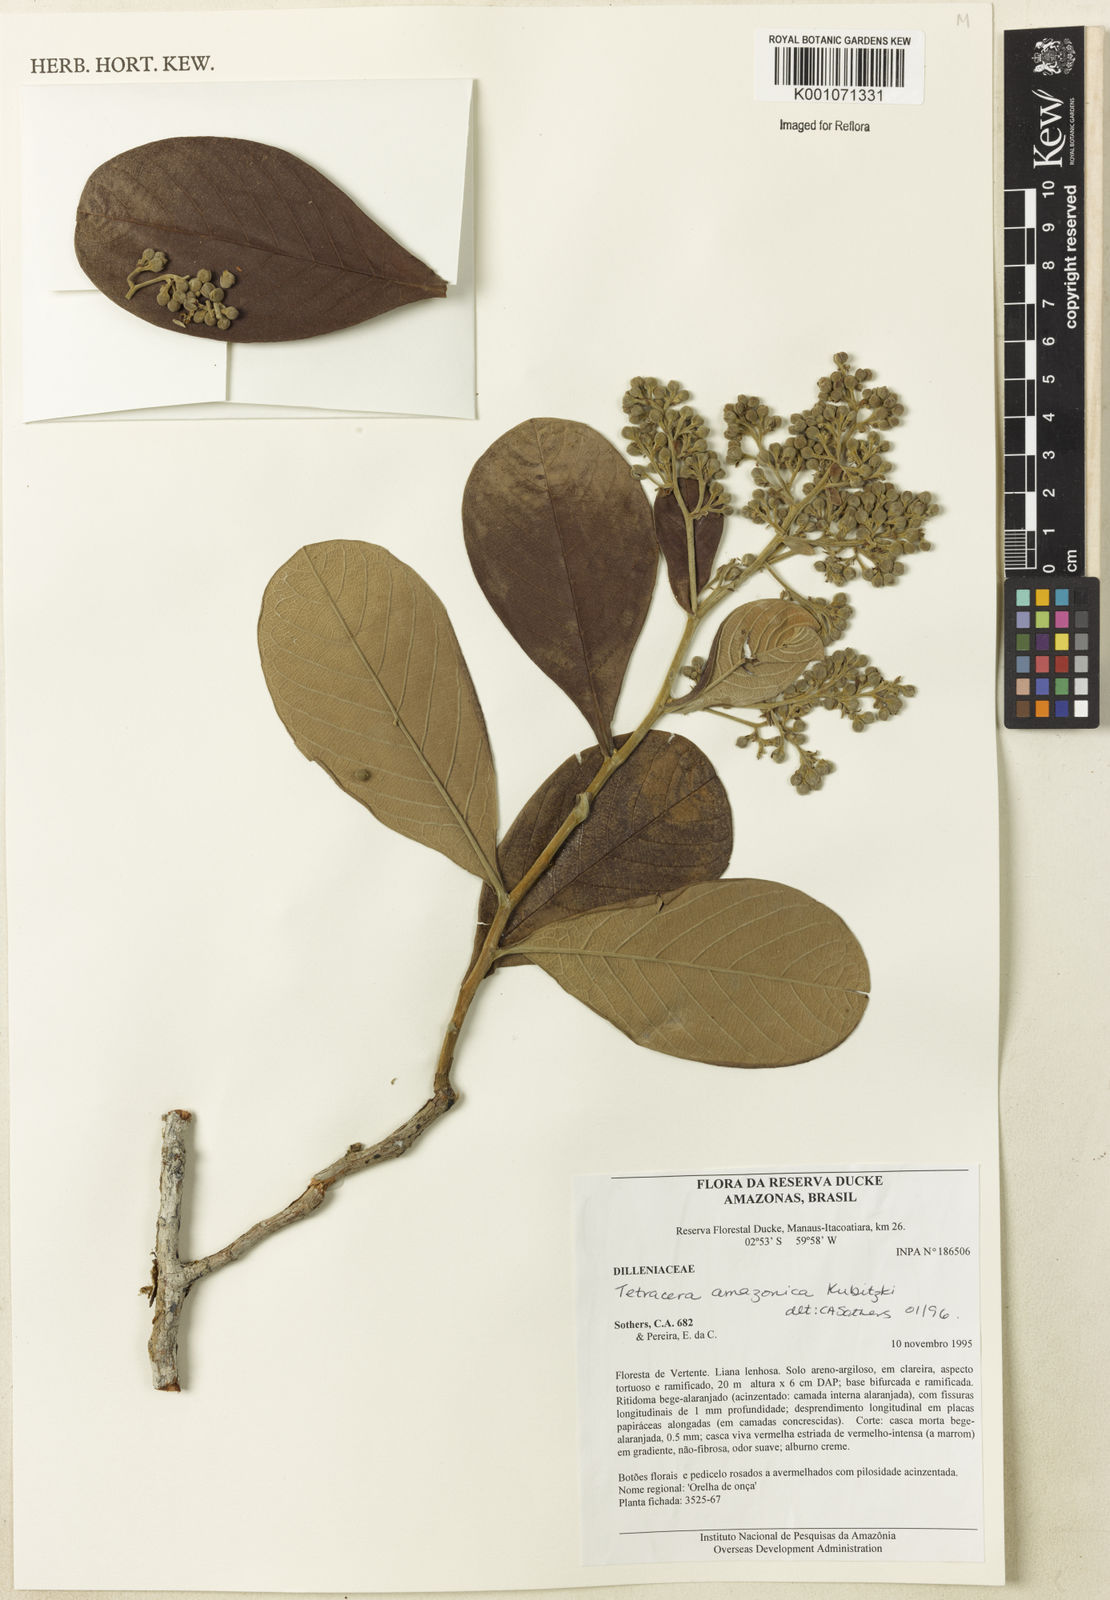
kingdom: Plantae
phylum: Tracheophyta
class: Magnoliopsida
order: Dilleniales
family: Dilleniaceae
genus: Tetracera
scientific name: Tetracera amazonica
